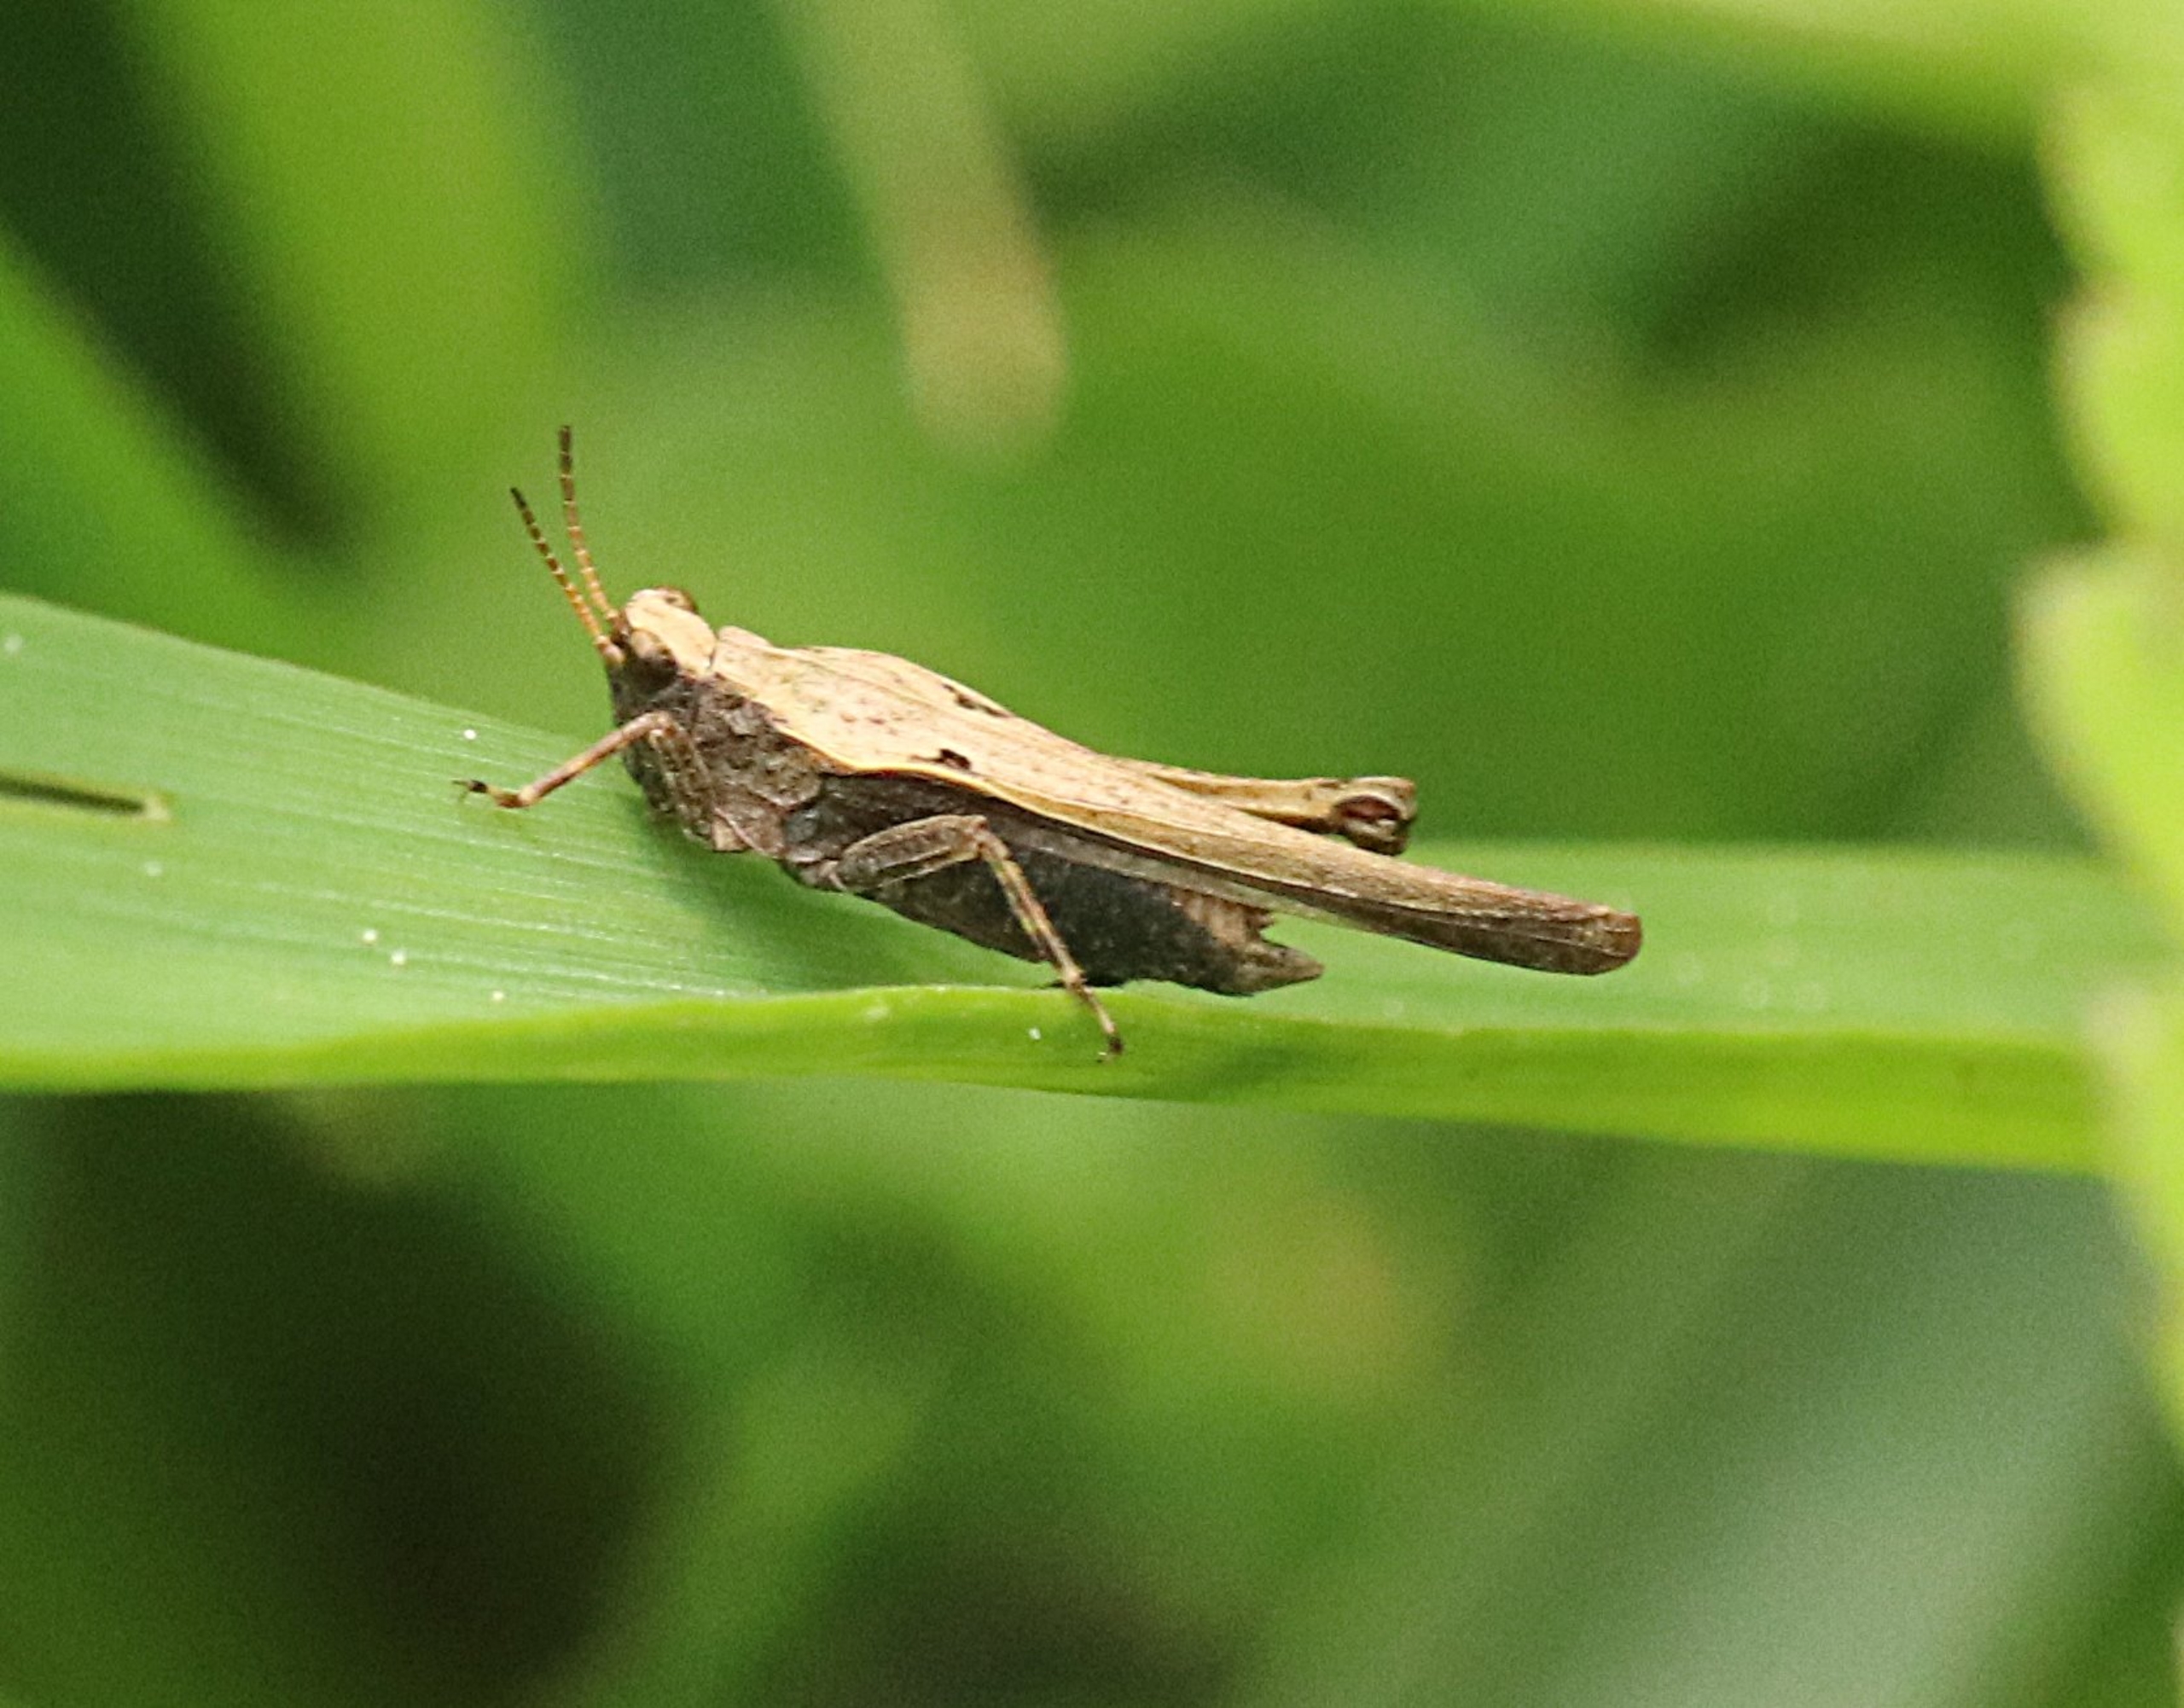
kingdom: Animalia
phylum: Arthropoda
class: Insecta
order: Orthoptera
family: Tetrigidae
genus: Tetrix
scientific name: Tetrix subulata
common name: Sump-torngræshoppe
